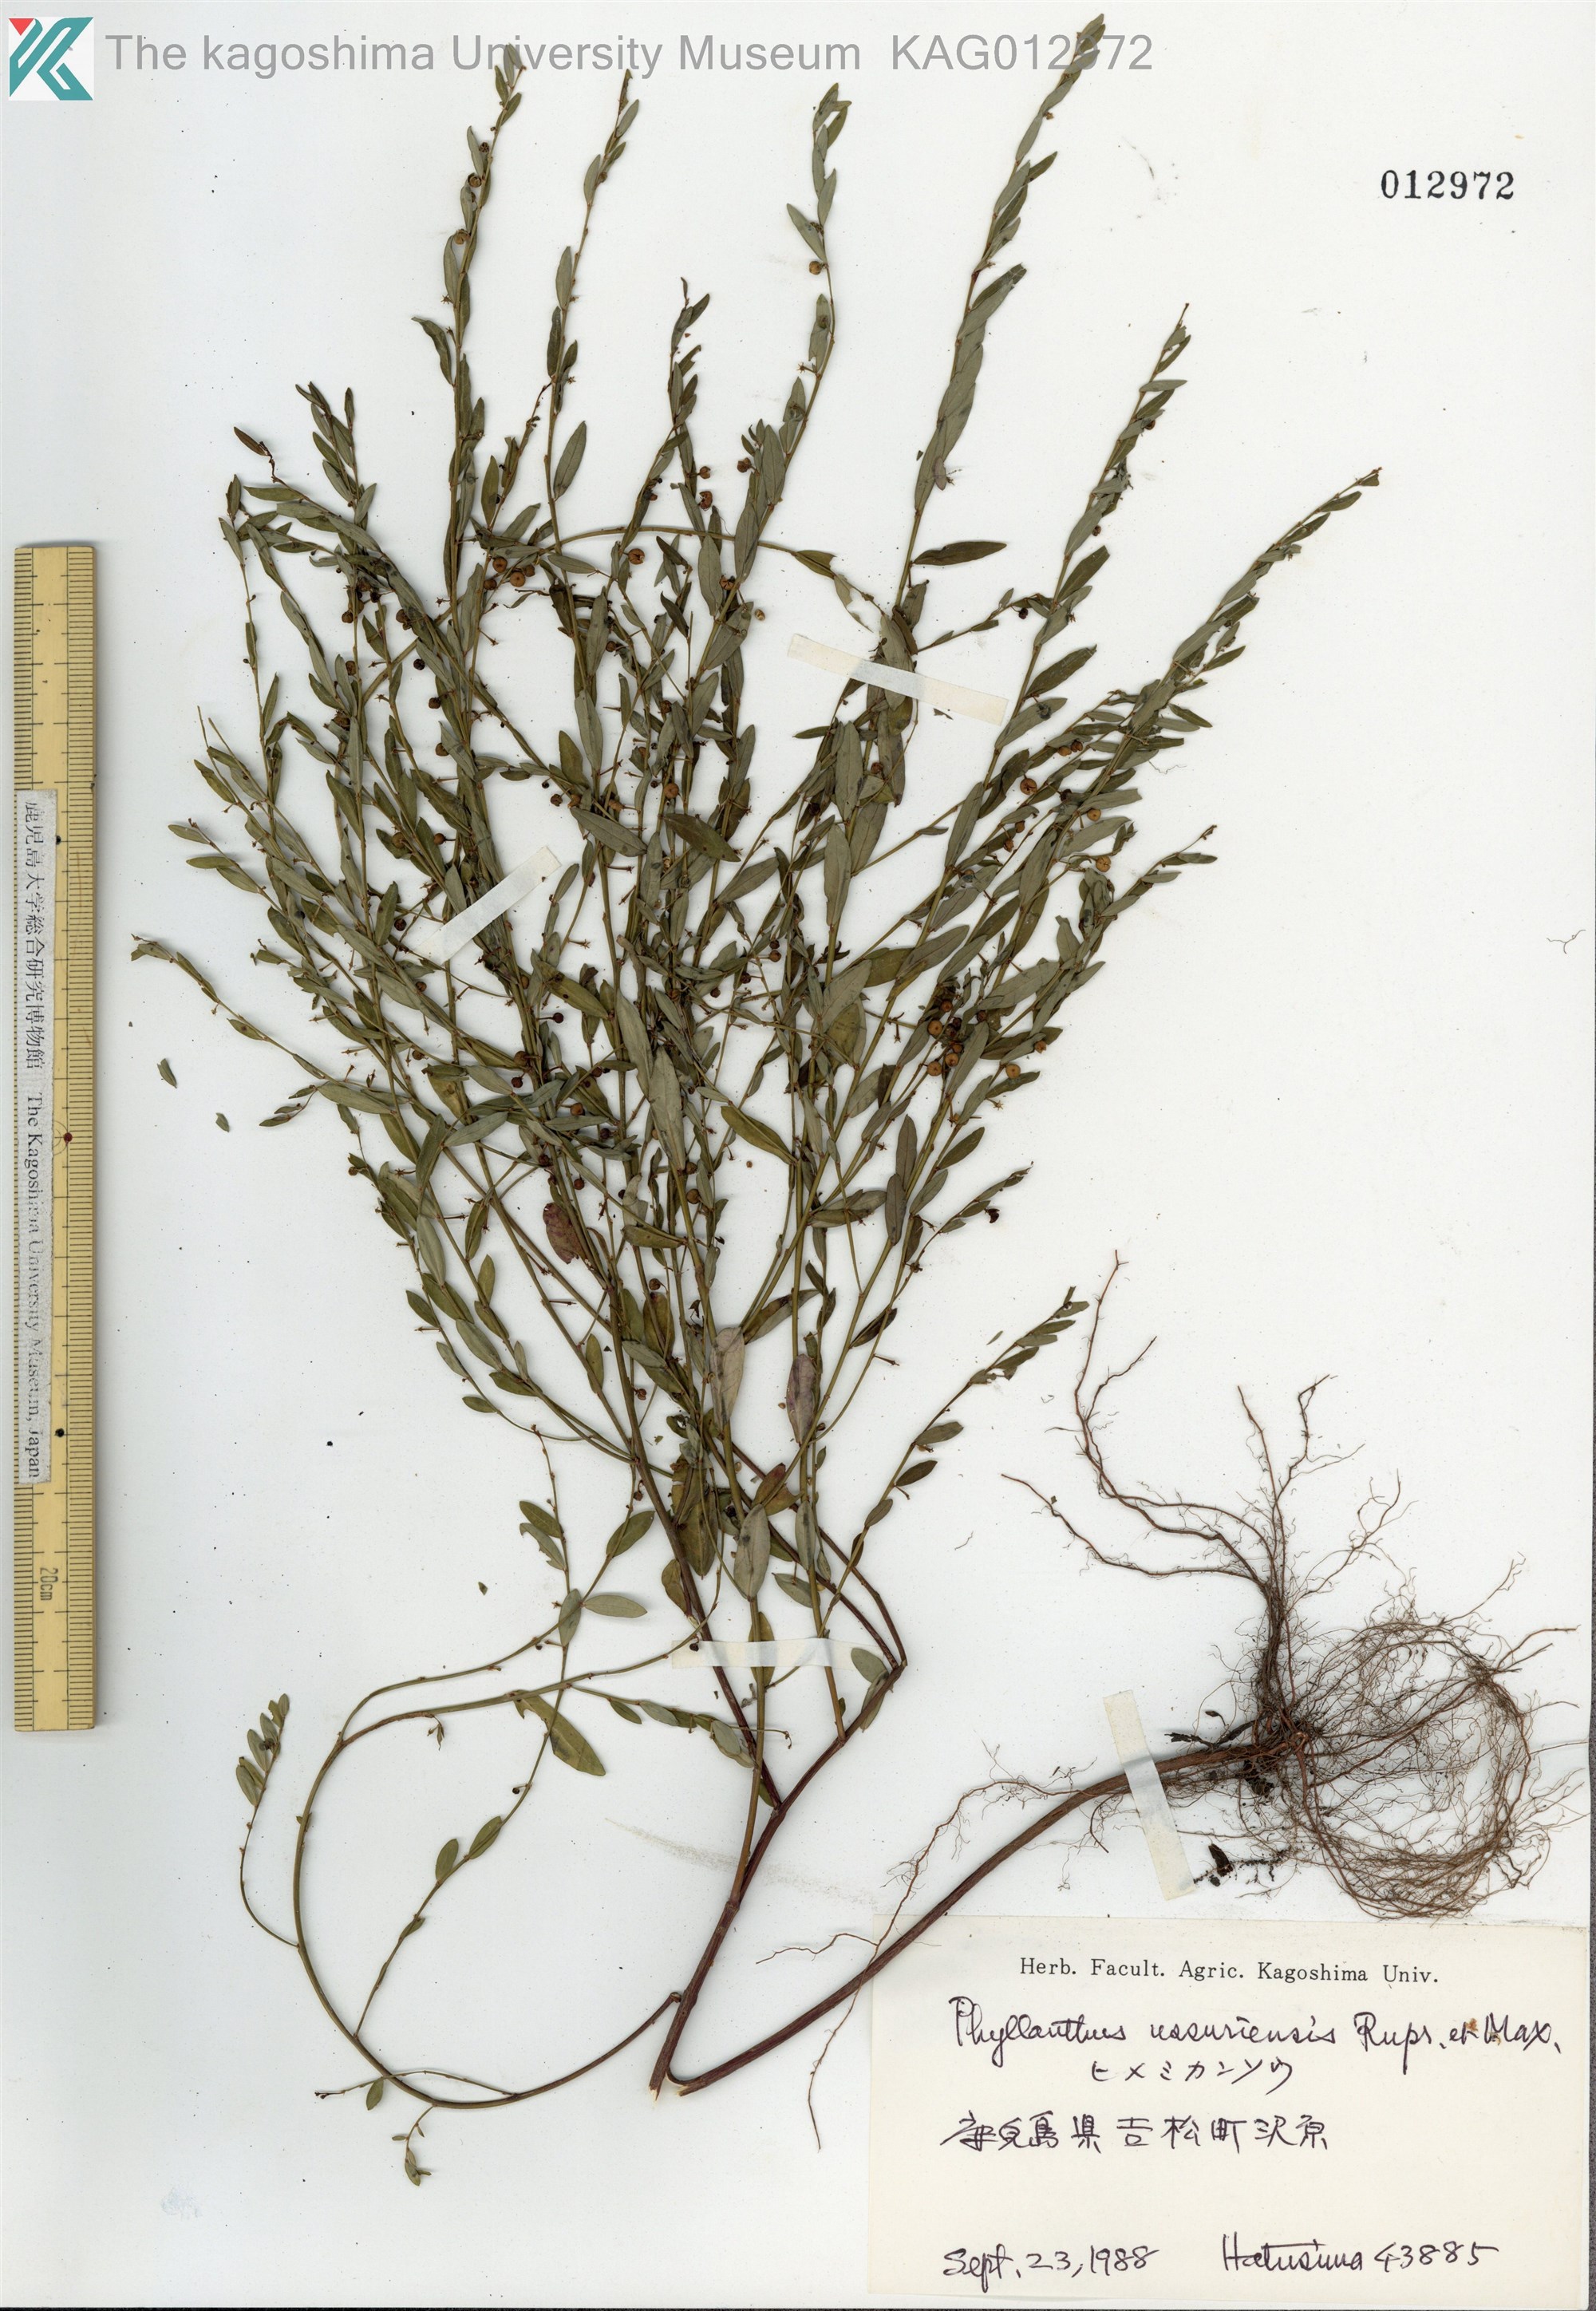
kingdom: Plantae
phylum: Tracheophyta
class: Magnoliopsida
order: Malpighiales
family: Phyllanthaceae
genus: Phyllanthus
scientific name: Phyllanthus ussuriensis
